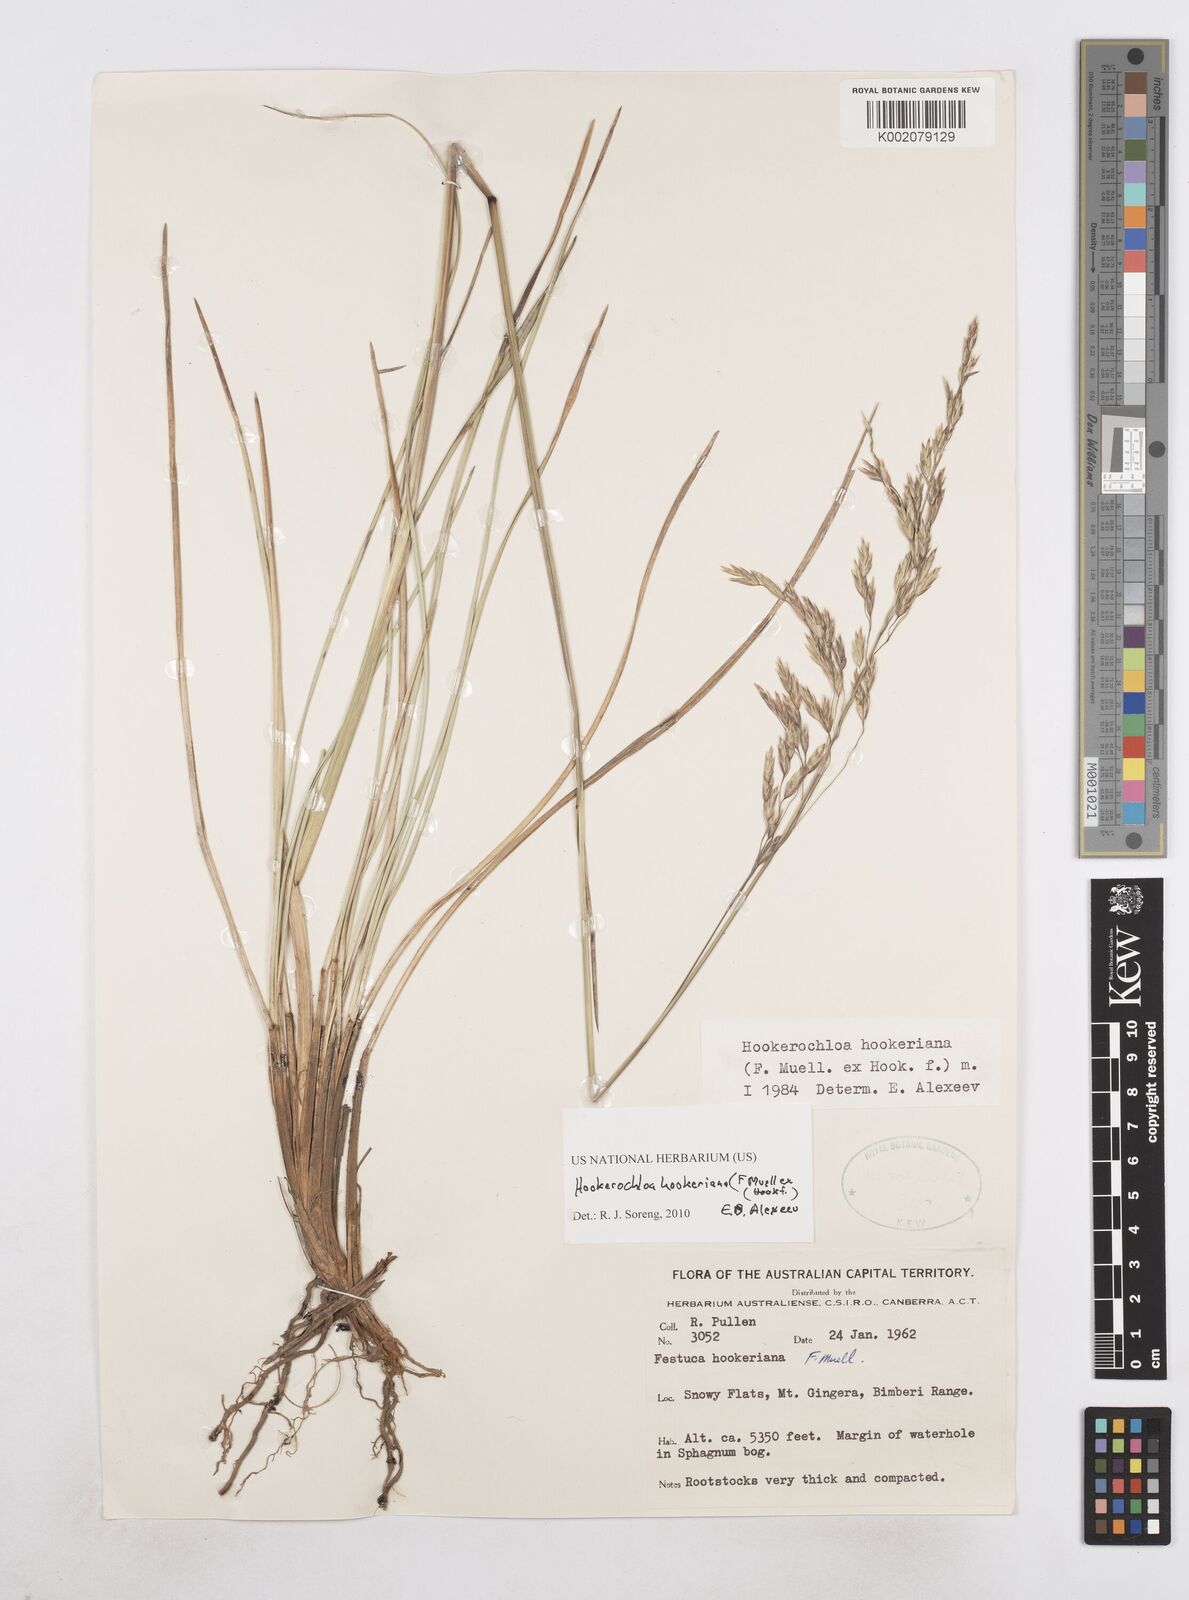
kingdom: Plantae
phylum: Tracheophyta
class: Liliopsida
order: Poales
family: Poaceae
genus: Hookerochloa
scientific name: Hookerochloa hookeriana
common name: Hooker's-fescue
